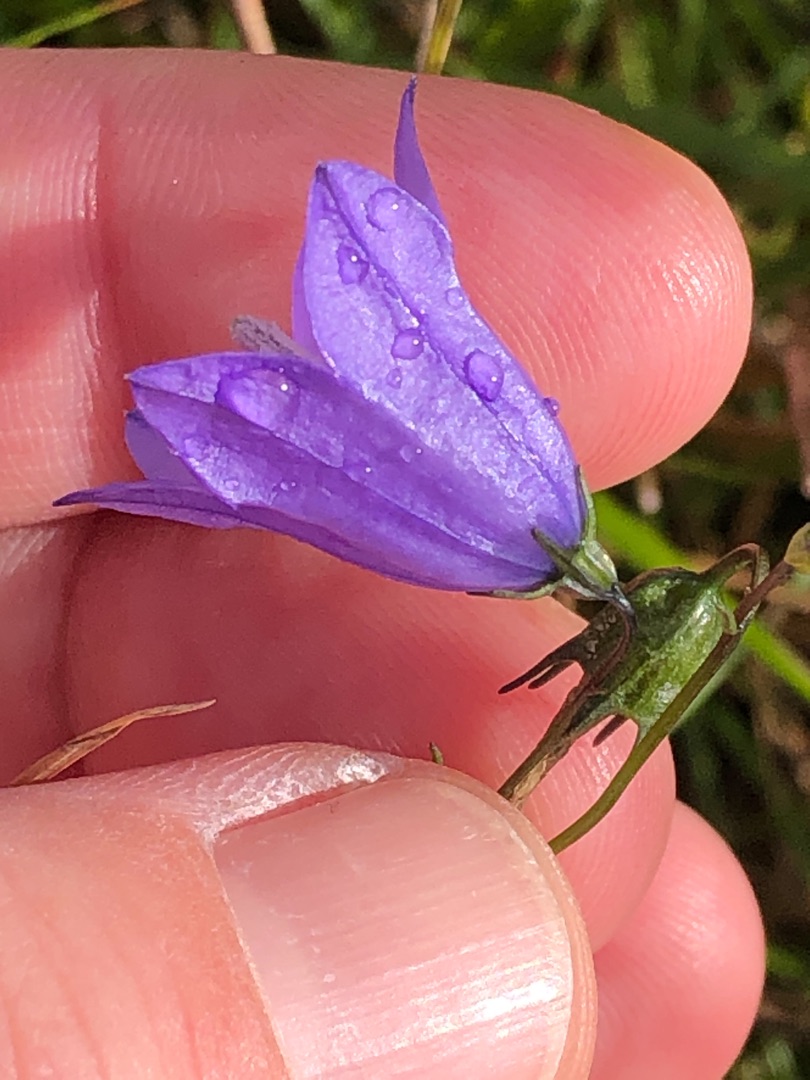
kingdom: Plantae
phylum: Tracheophyta
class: Magnoliopsida
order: Asterales
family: Campanulaceae
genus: Campanula
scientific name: Campanula rotundifolia
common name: Liden klokke
